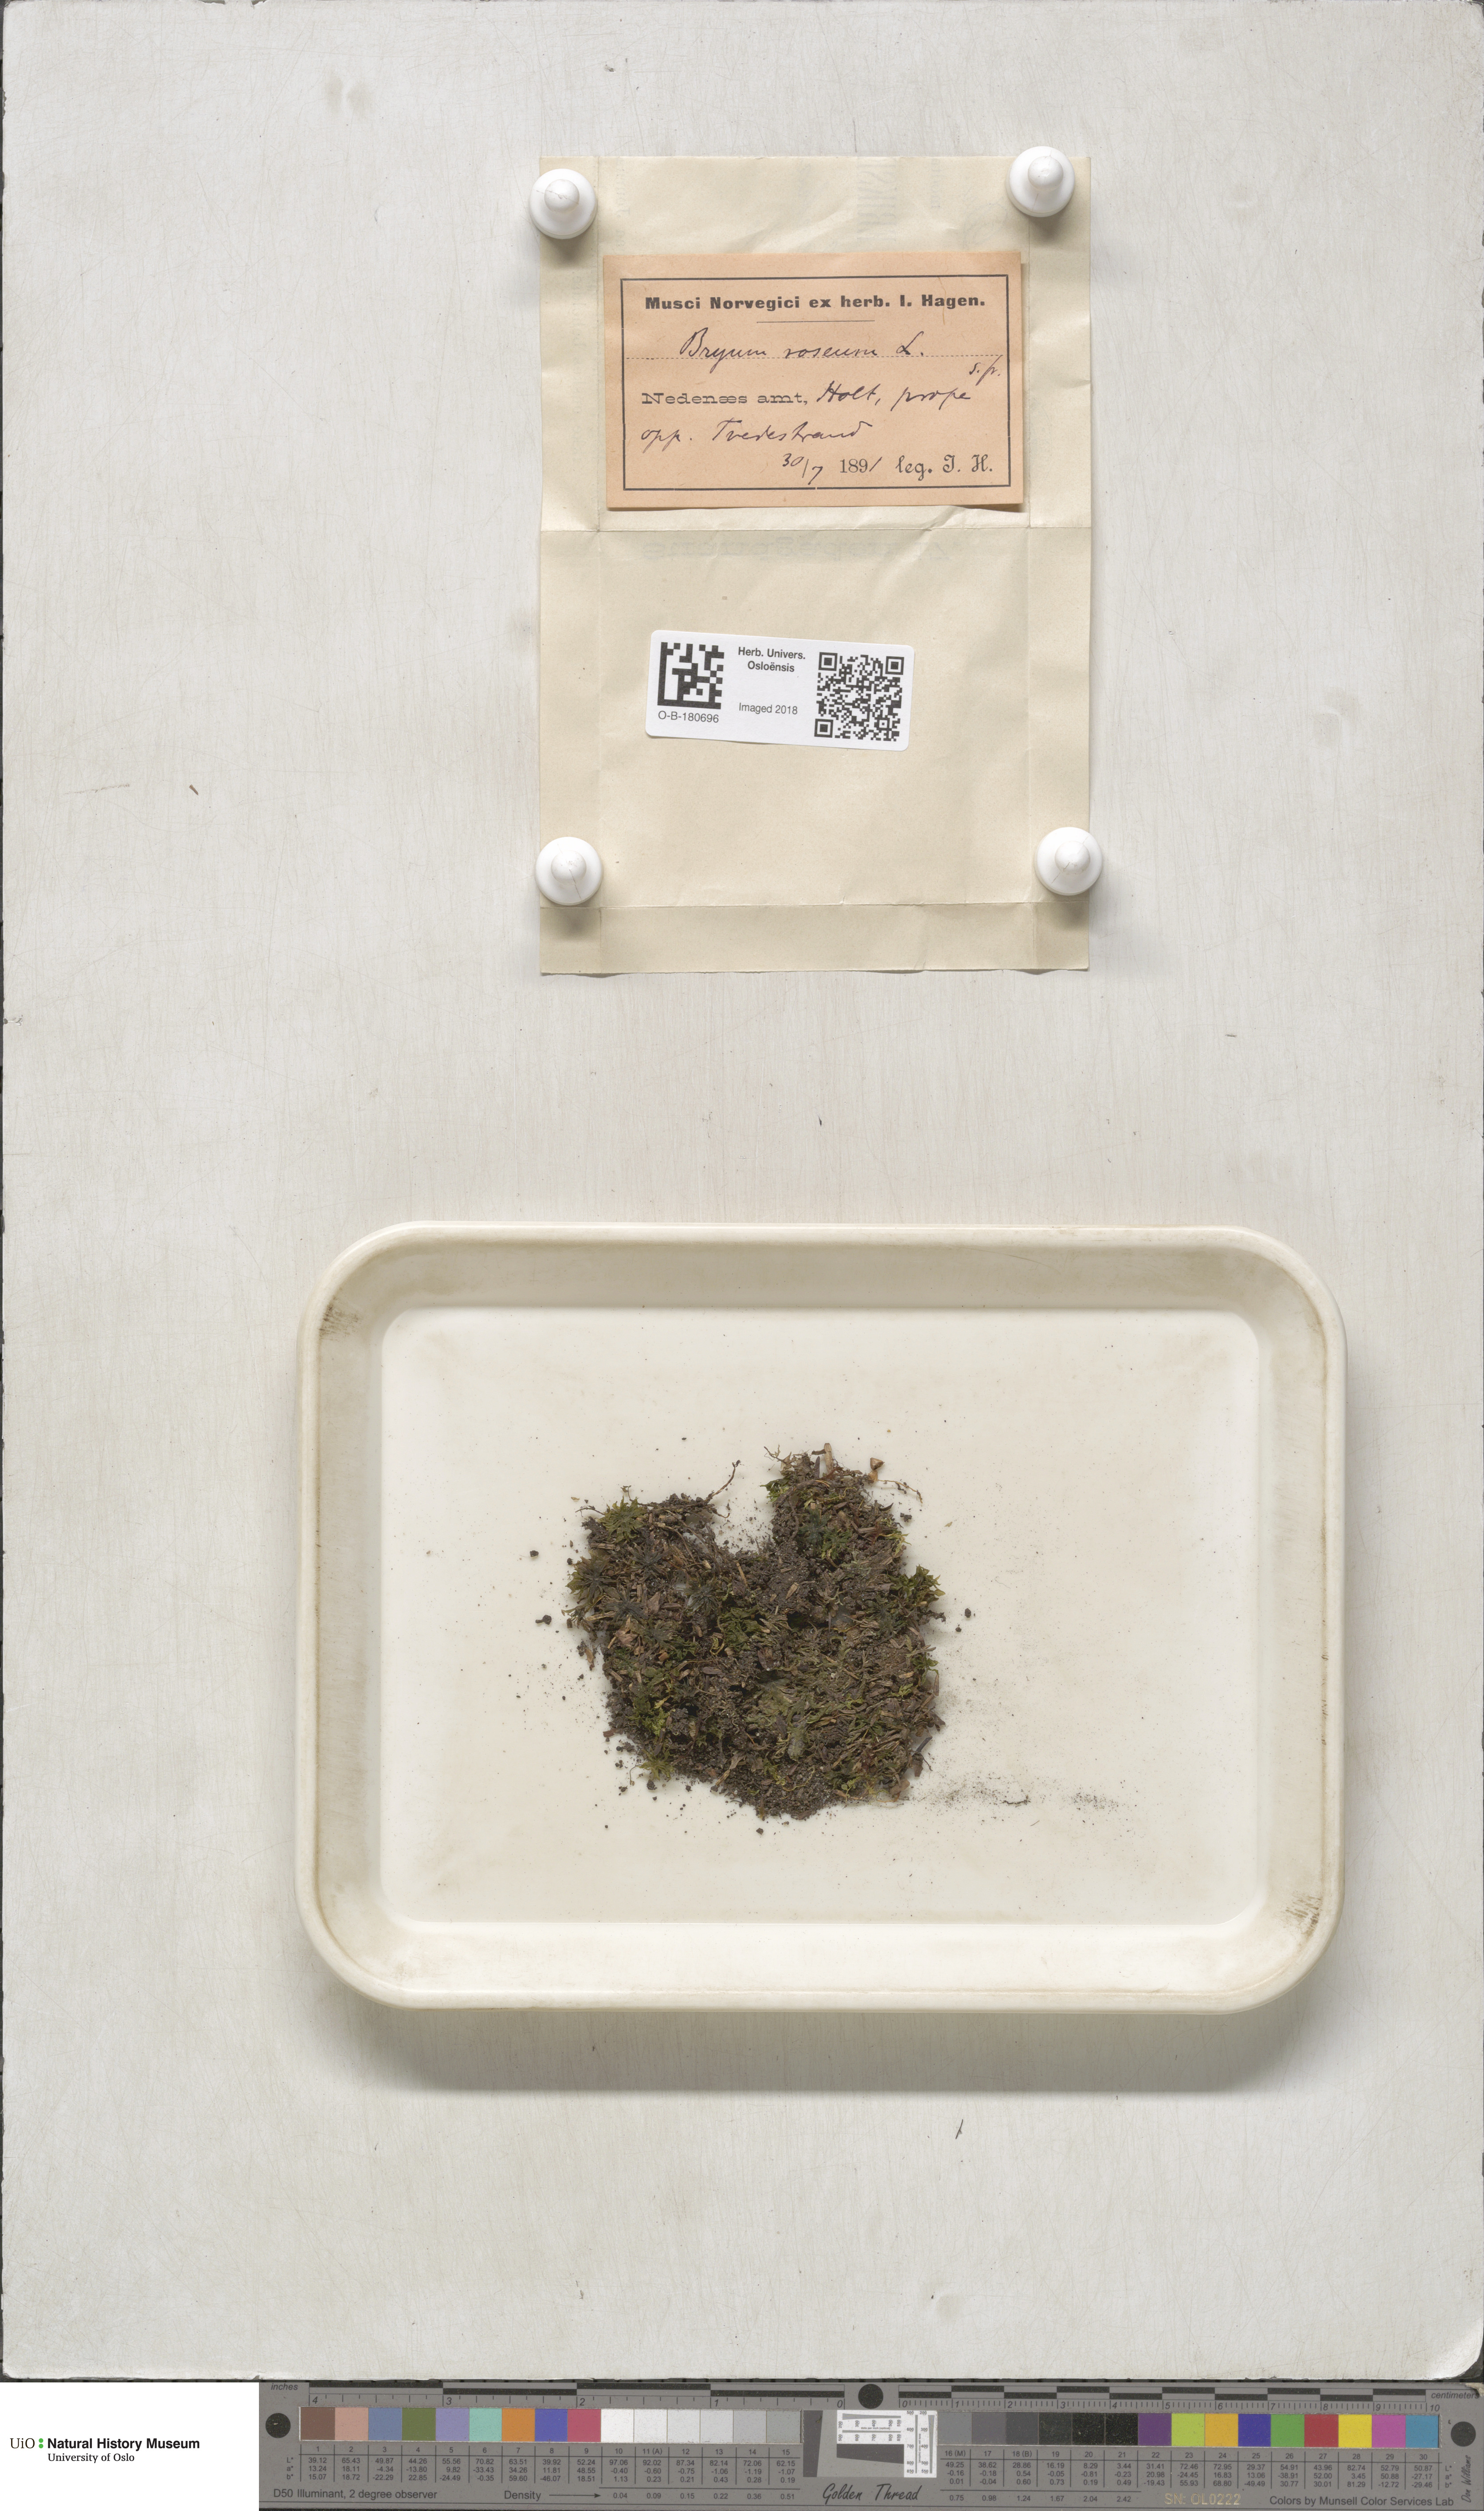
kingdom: Plantae
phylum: Bryophyta
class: Bryopsida
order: Bryales
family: Bryaceae
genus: Rhodobryum
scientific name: Rhodobryum roseum
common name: Rose-moss
